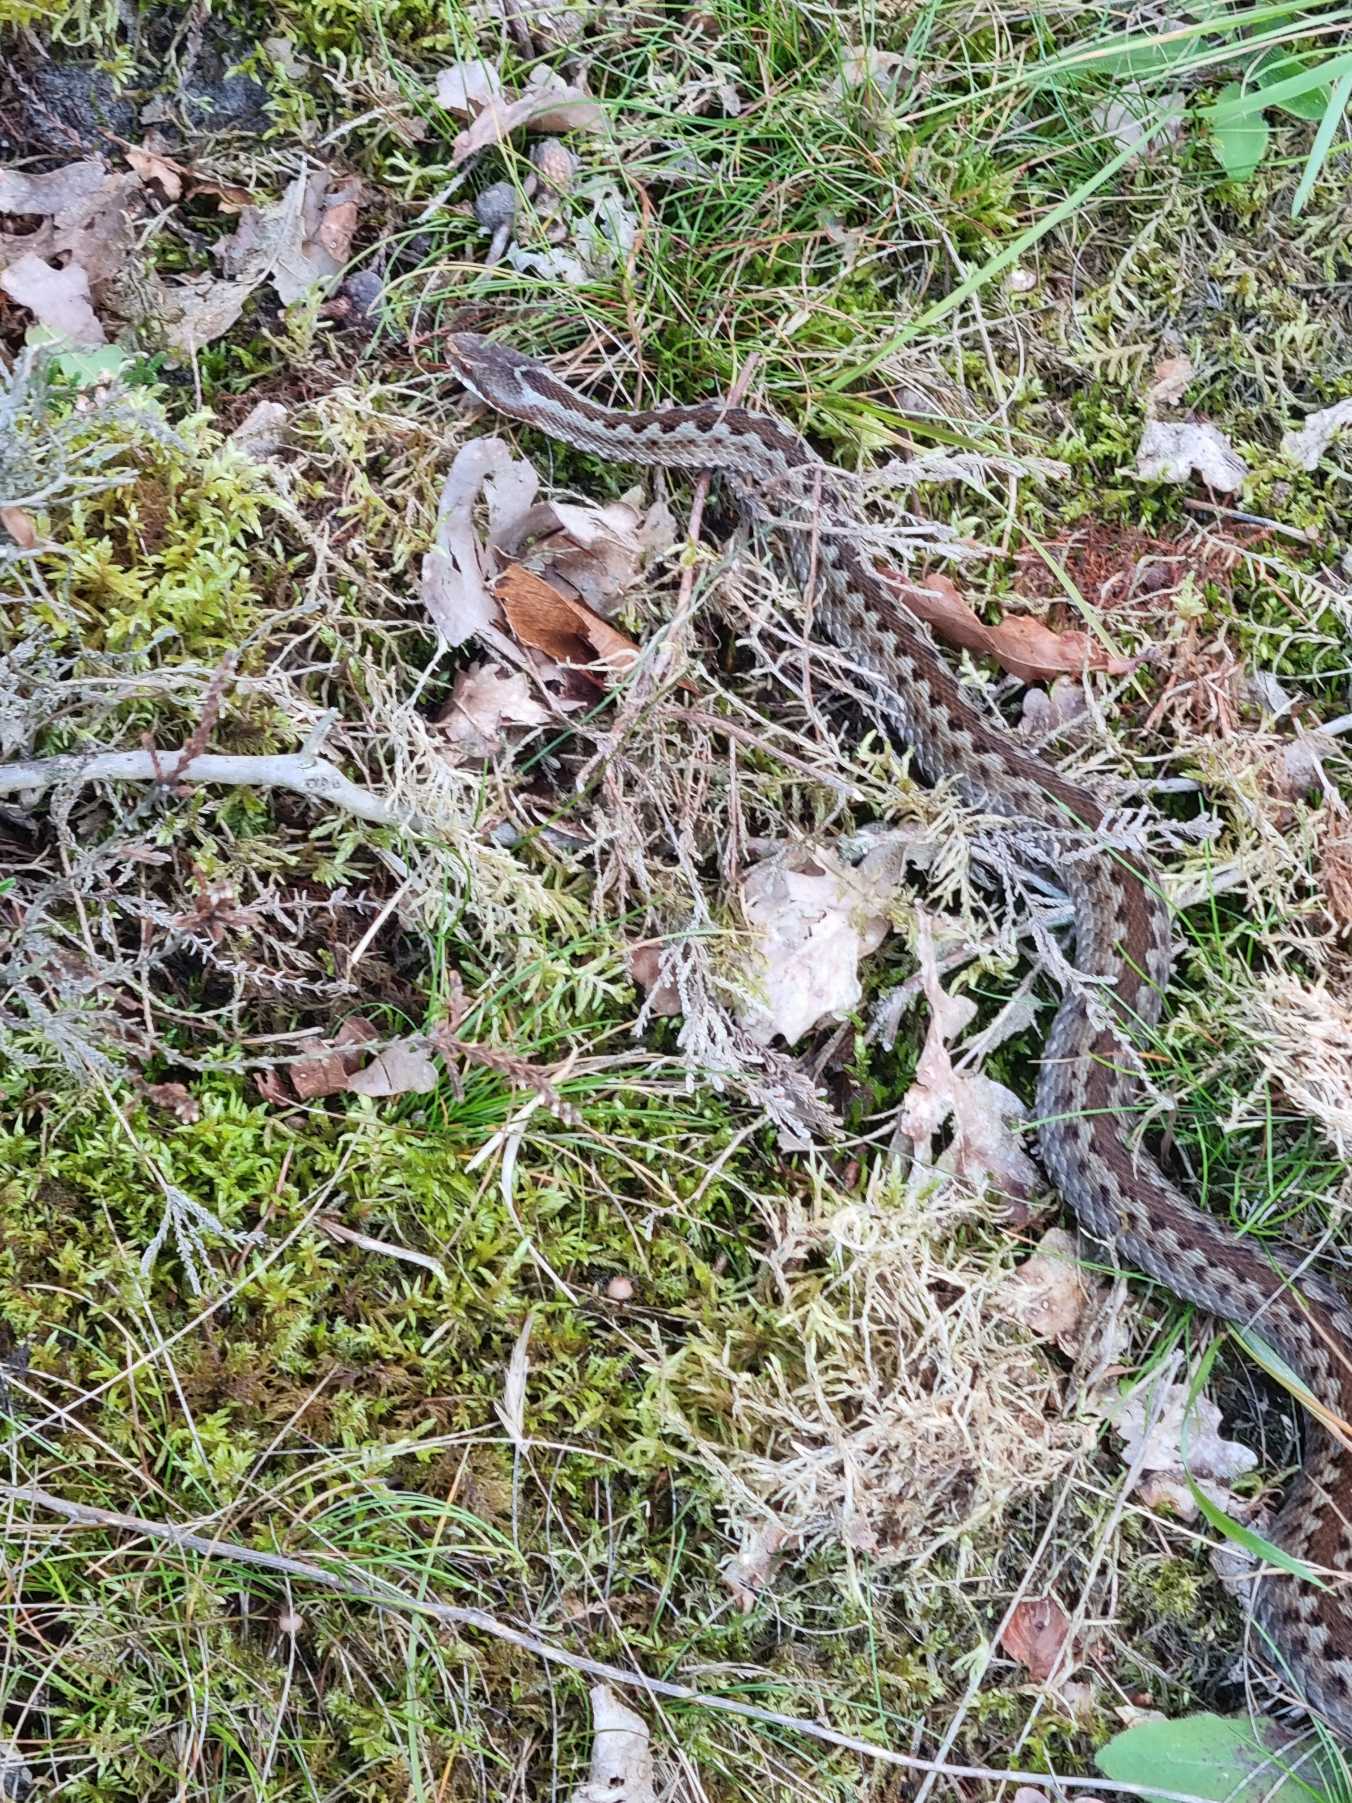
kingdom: Animalia
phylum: Chordata
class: Squamata
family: Viperidae
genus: Vipera
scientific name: Vipera berus
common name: Hugorm
